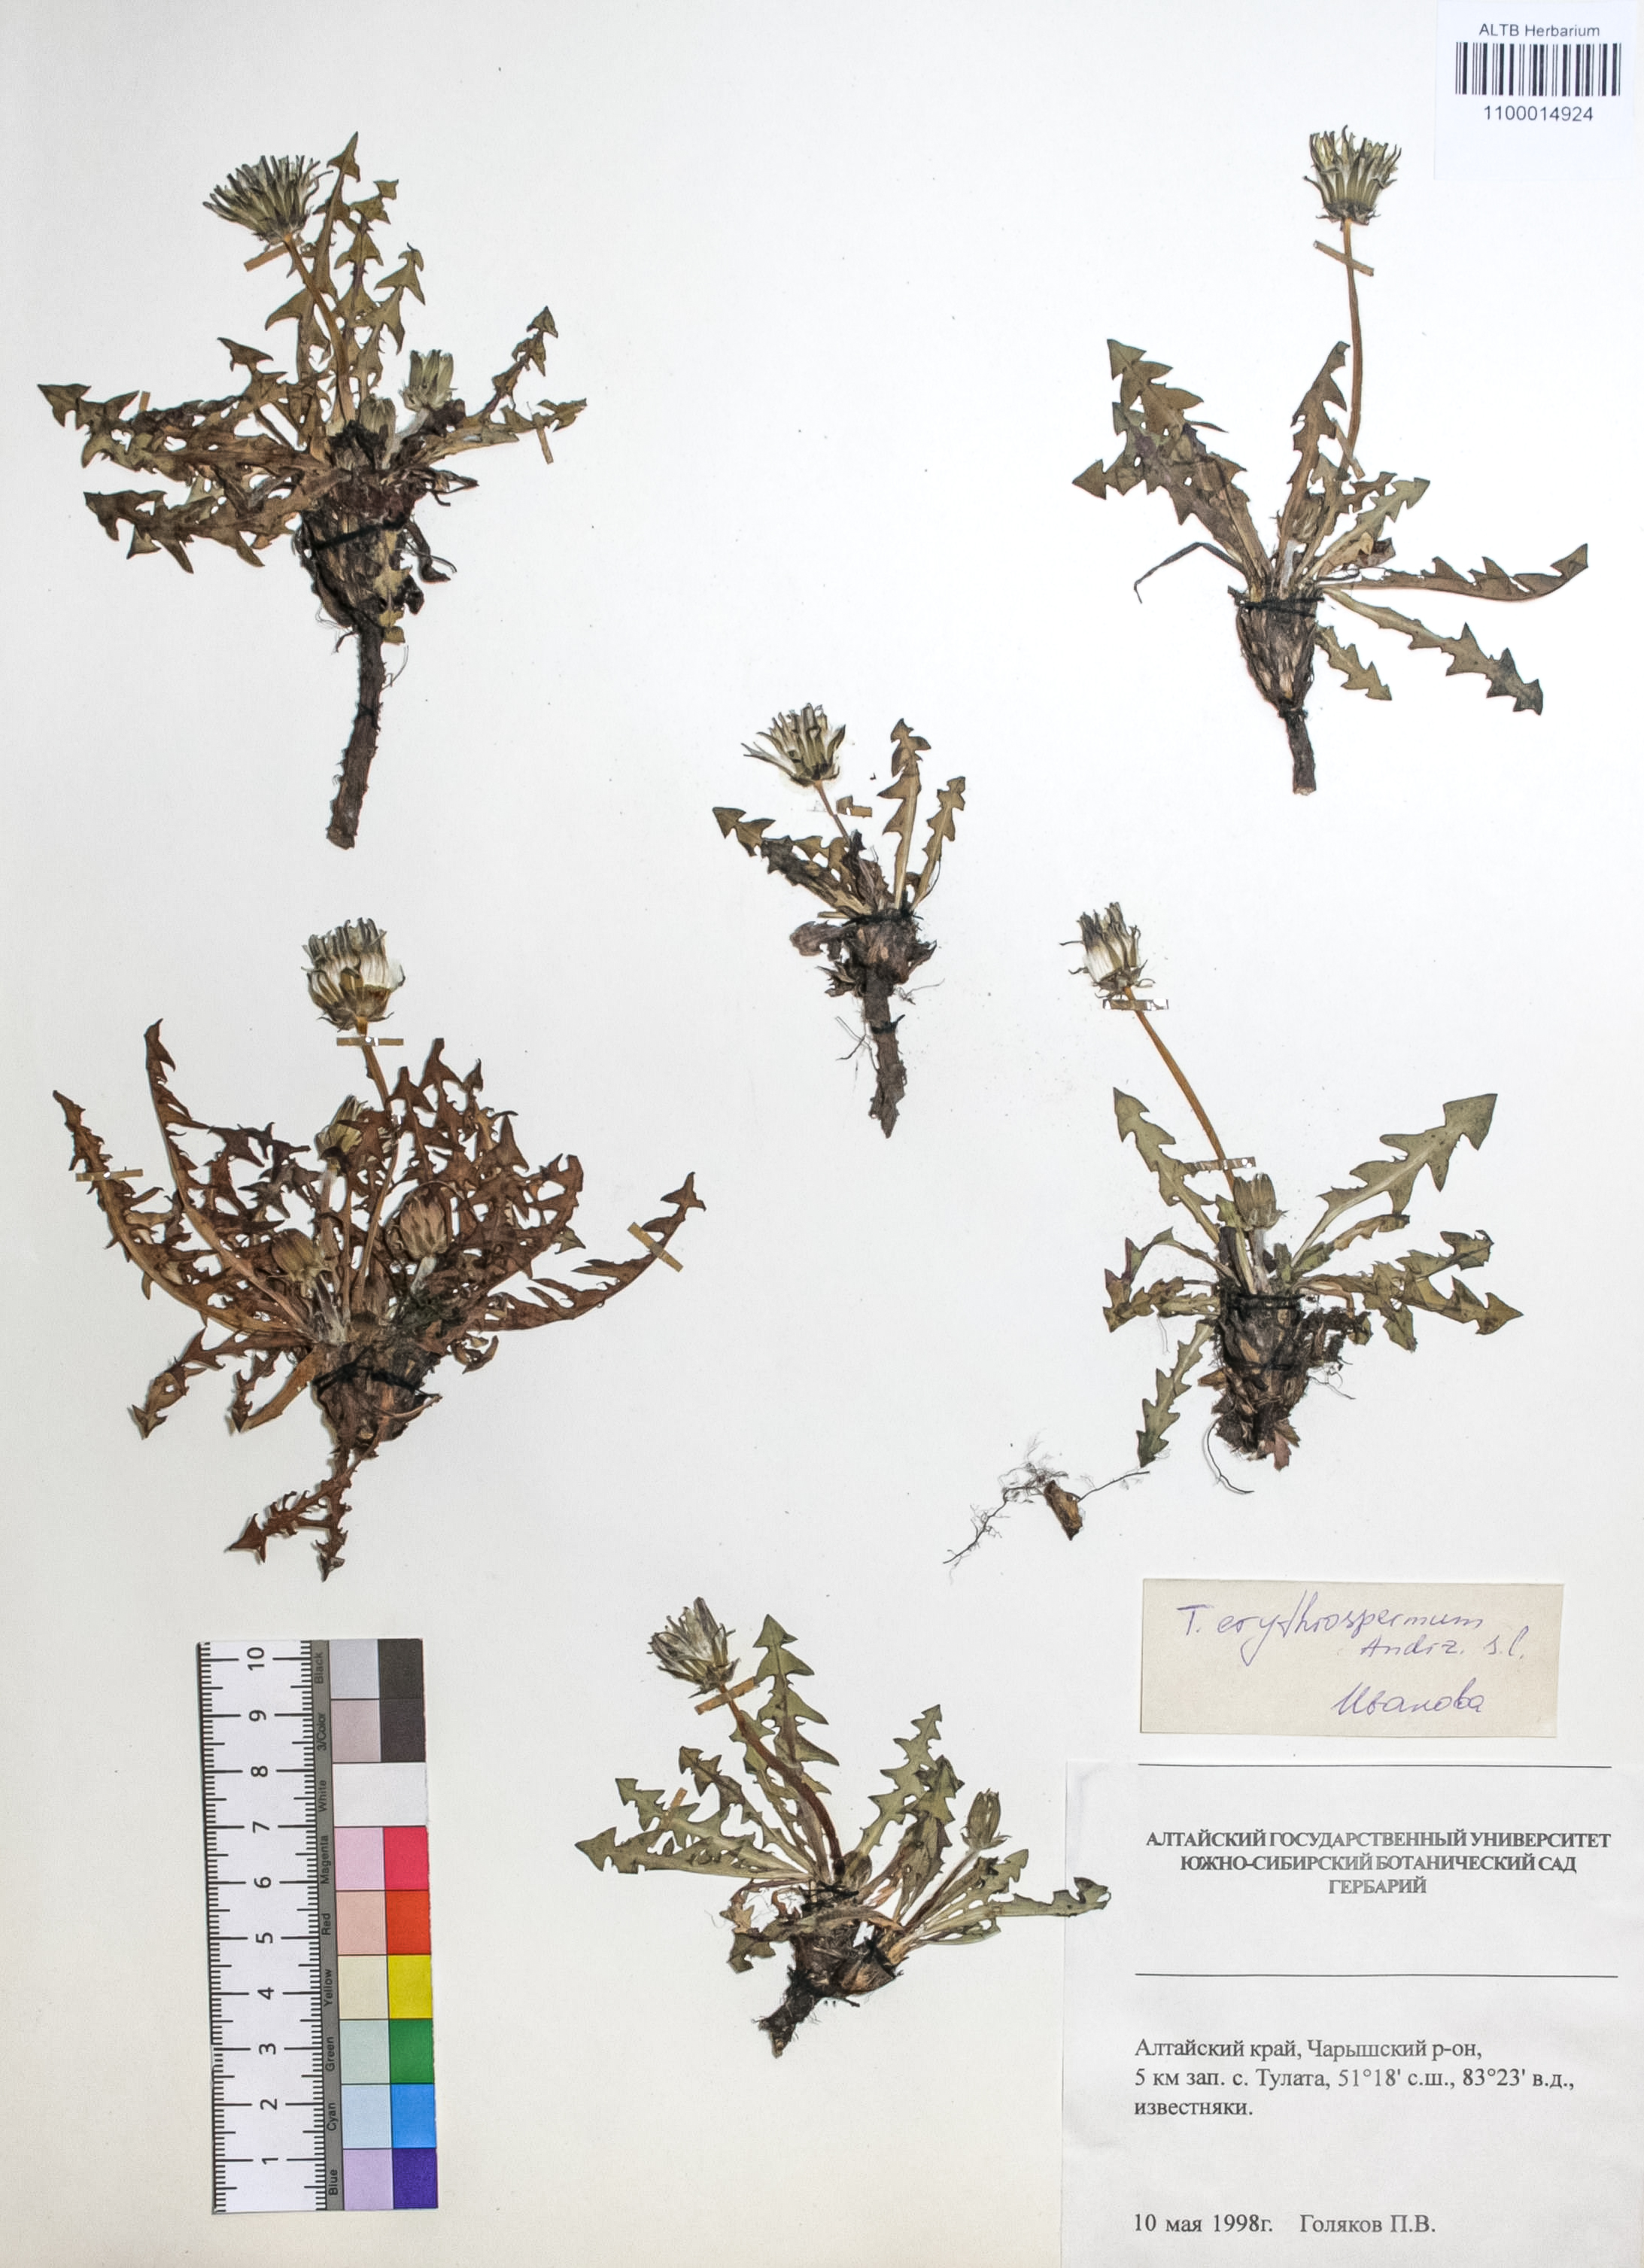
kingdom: Plantae
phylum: Tracheophyta
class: Magnoliopsida
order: Asterales
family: Asteraceae
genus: Taraxacum
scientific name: Taraxacum erythrospermum
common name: Rock dandelion
